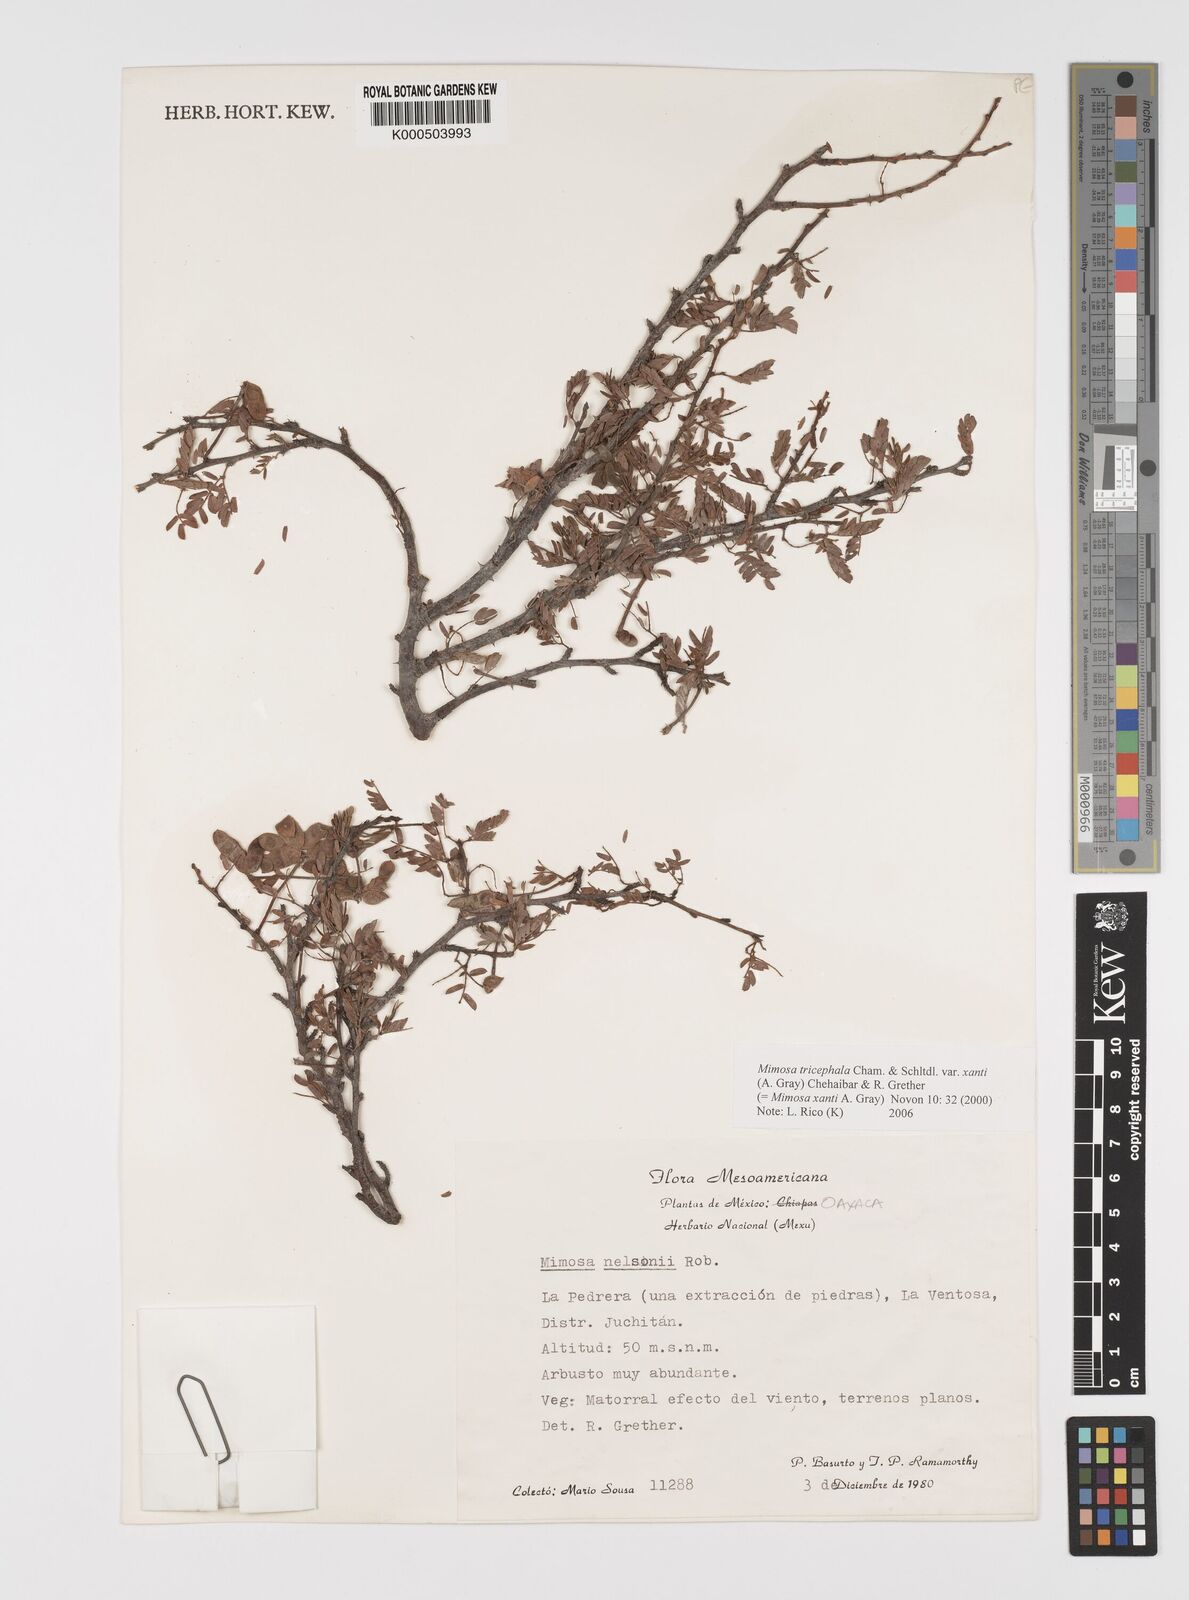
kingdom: Plantae
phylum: Tracheophyta
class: Magnoliopsida
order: Fabales
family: Fabaceae
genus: Mimosa
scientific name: Mimosa tricephala
